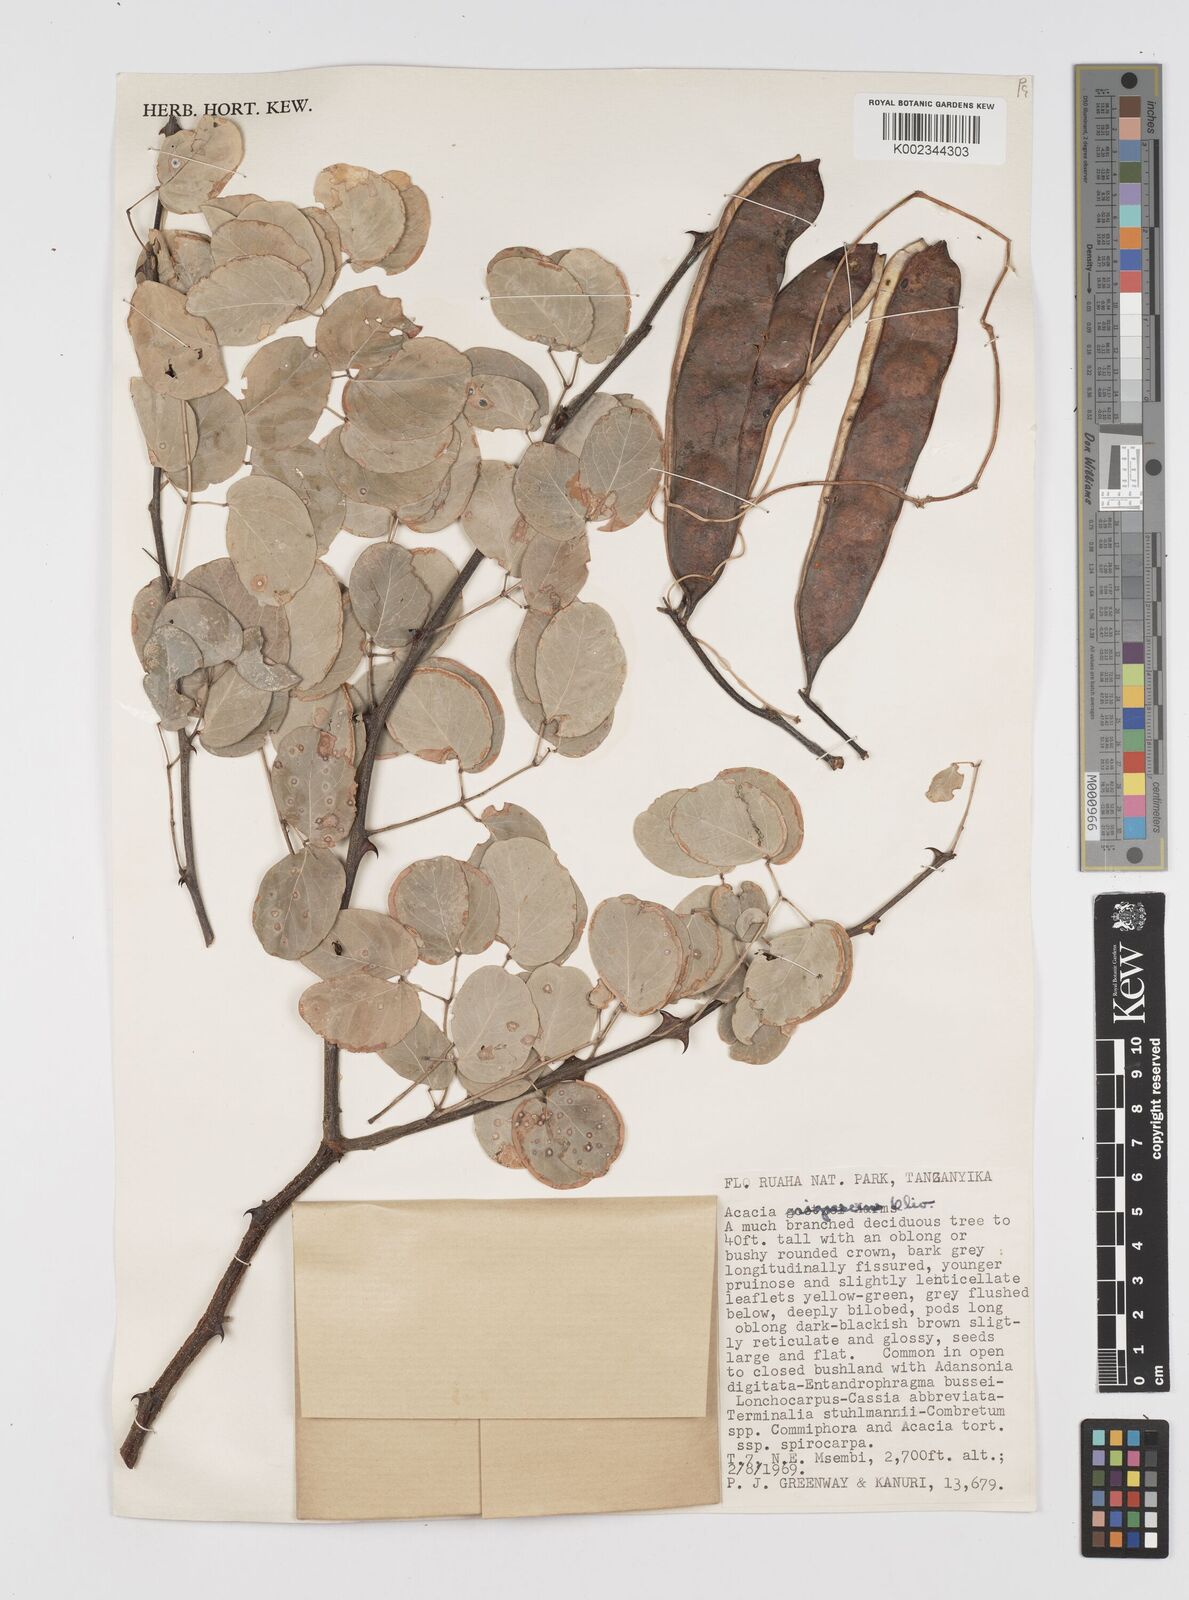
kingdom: Plantae
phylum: Tracheophyta
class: Magnoliopsida
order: Fabales
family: Fabaceae
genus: Senegalia
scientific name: Senegalia nigrescens
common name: Knobthorn
